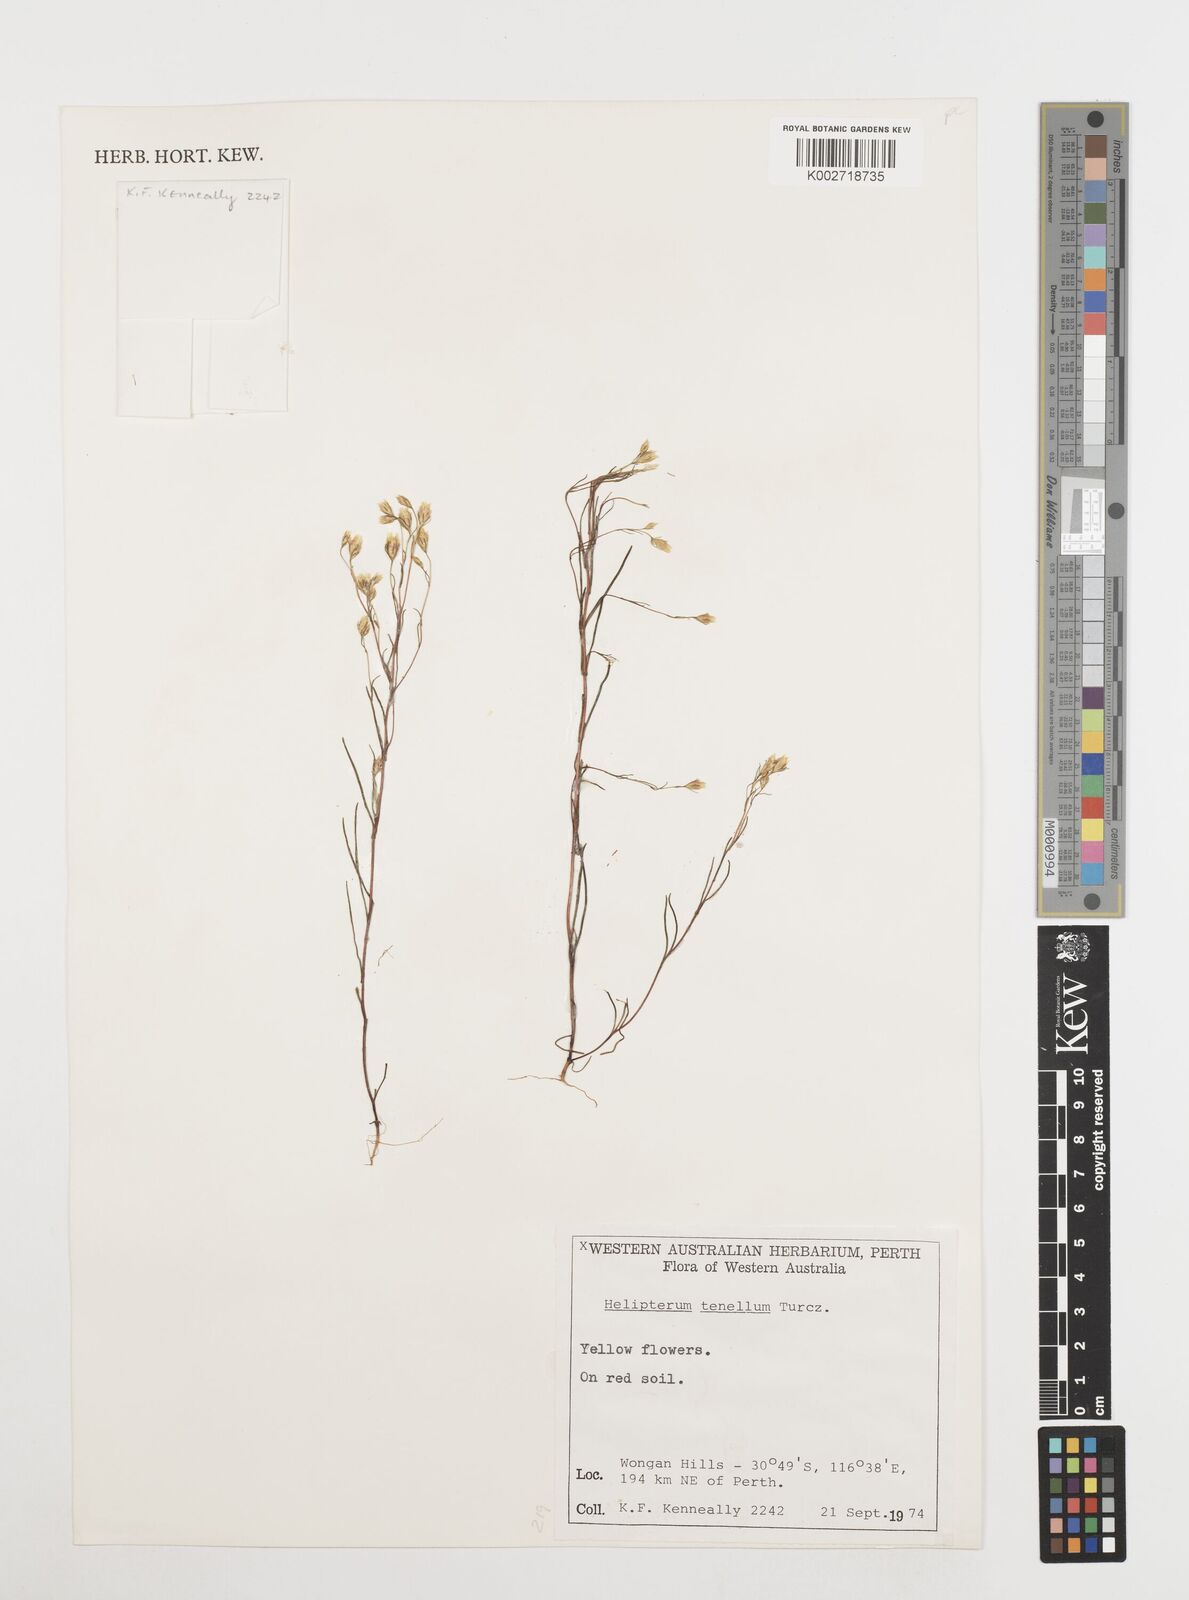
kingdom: Plantae
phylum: Tracheophyta
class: Magnoliopsida
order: Asterales
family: Asteraceae
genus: Erymophyllum
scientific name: Erymophyllum tenellum
